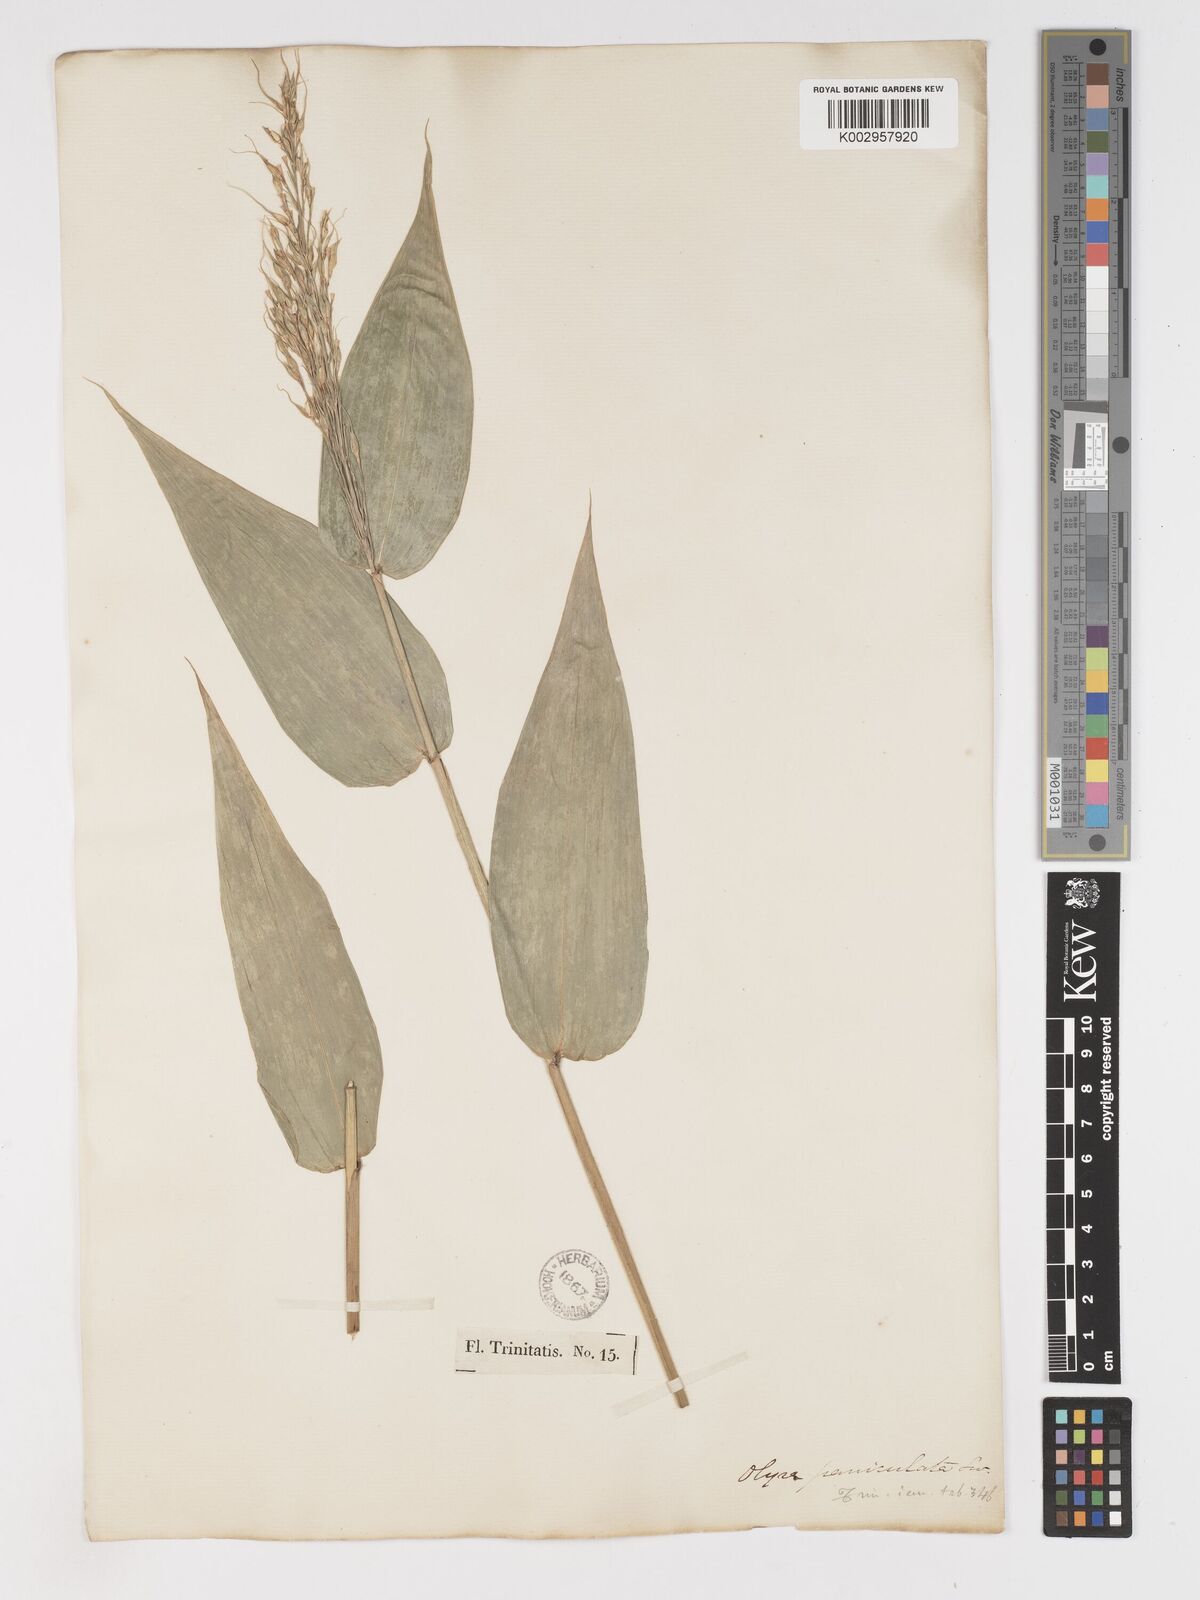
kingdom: Plantae
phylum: Tracheophyta
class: Liliopsida
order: Poales
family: Poaceae
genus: Olyra
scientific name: Olyra latifolia
